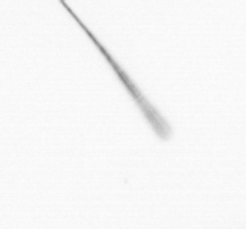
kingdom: Chromista
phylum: Ochrophyta
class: Bacillariophyceae
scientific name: Bacillariophyceae
